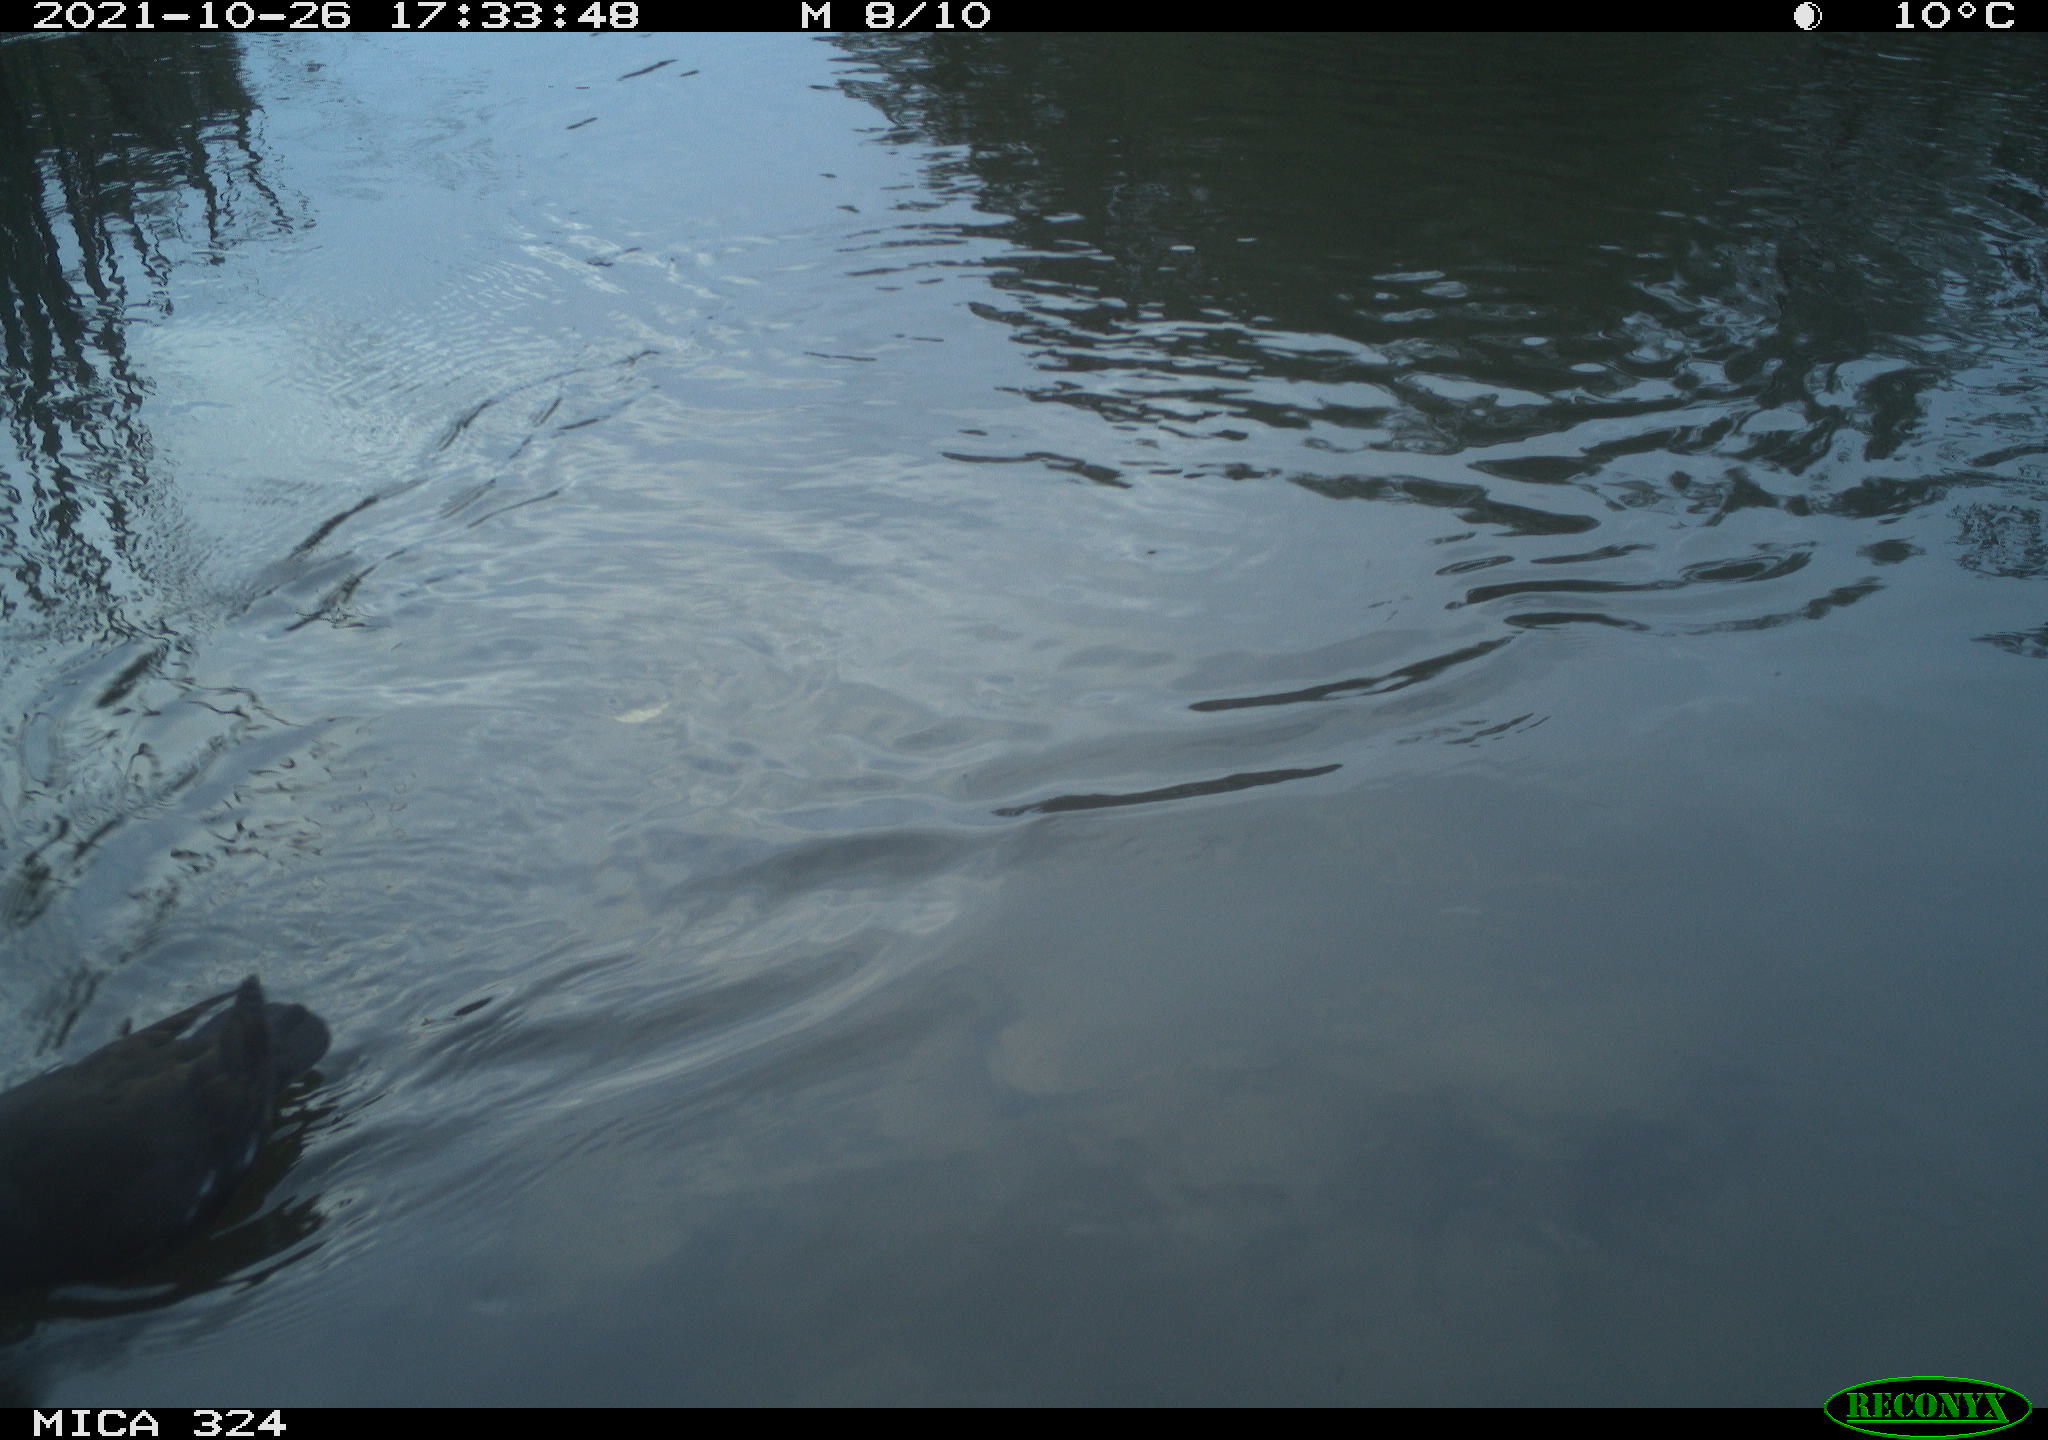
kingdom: Animalia
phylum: Chordata
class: Aves
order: Gruiformes
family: Rallidae
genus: Gallinula
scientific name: Gallinula chloropus
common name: Common moorhen
